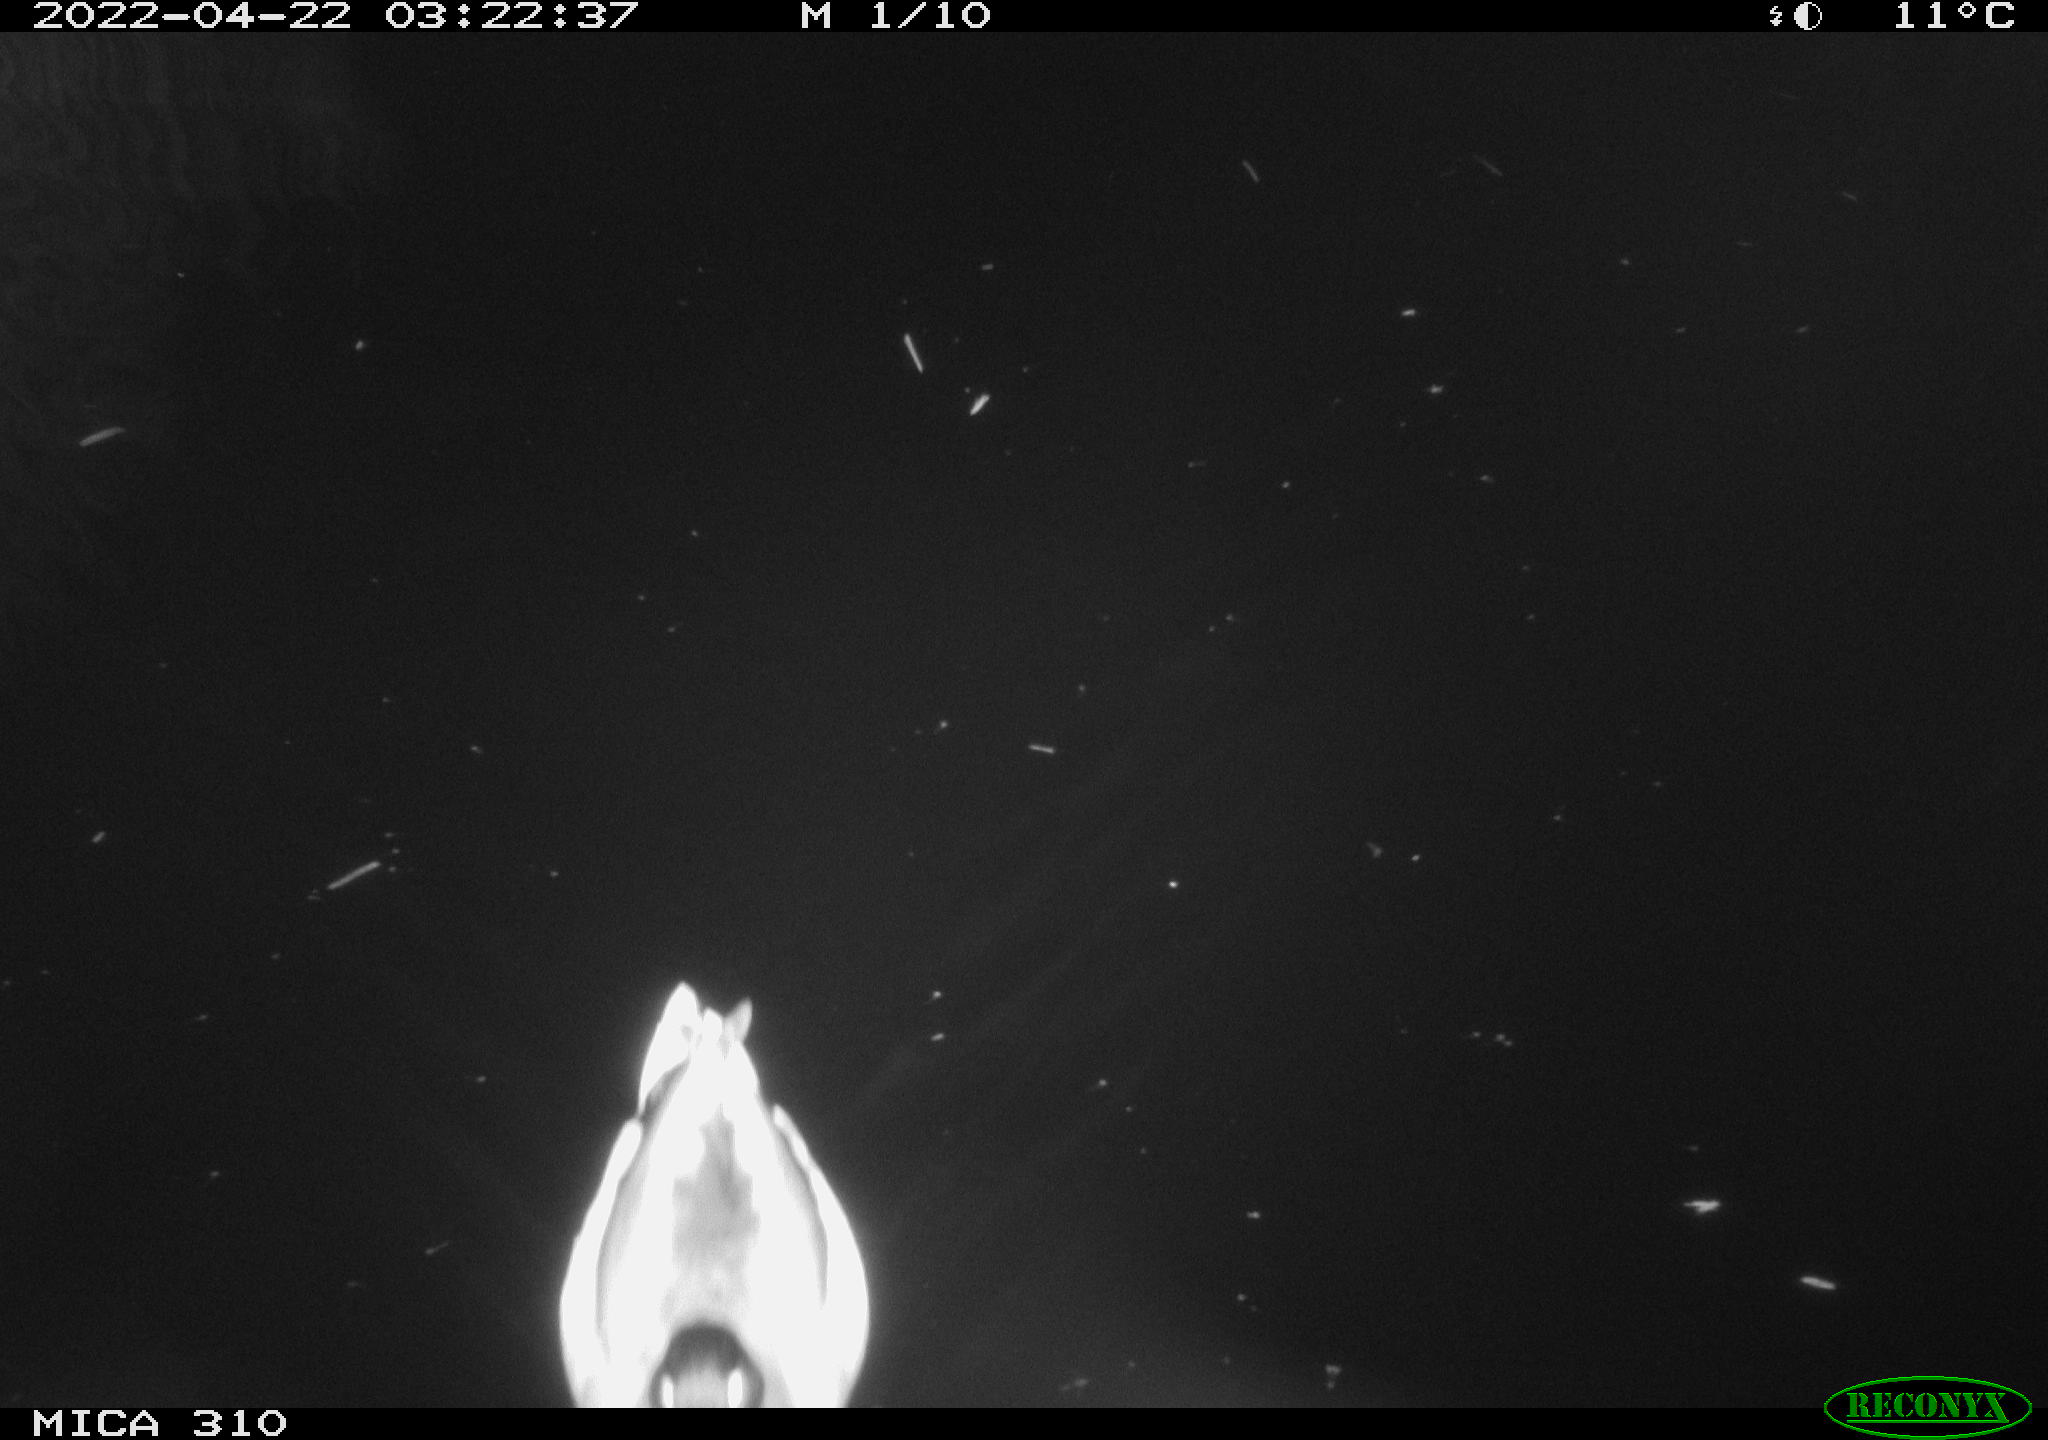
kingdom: Animalia
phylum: Chordata
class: Aves
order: Anseriformes
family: Anatidae
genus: Anas
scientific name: Anas platyrhynchos
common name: Mallard
